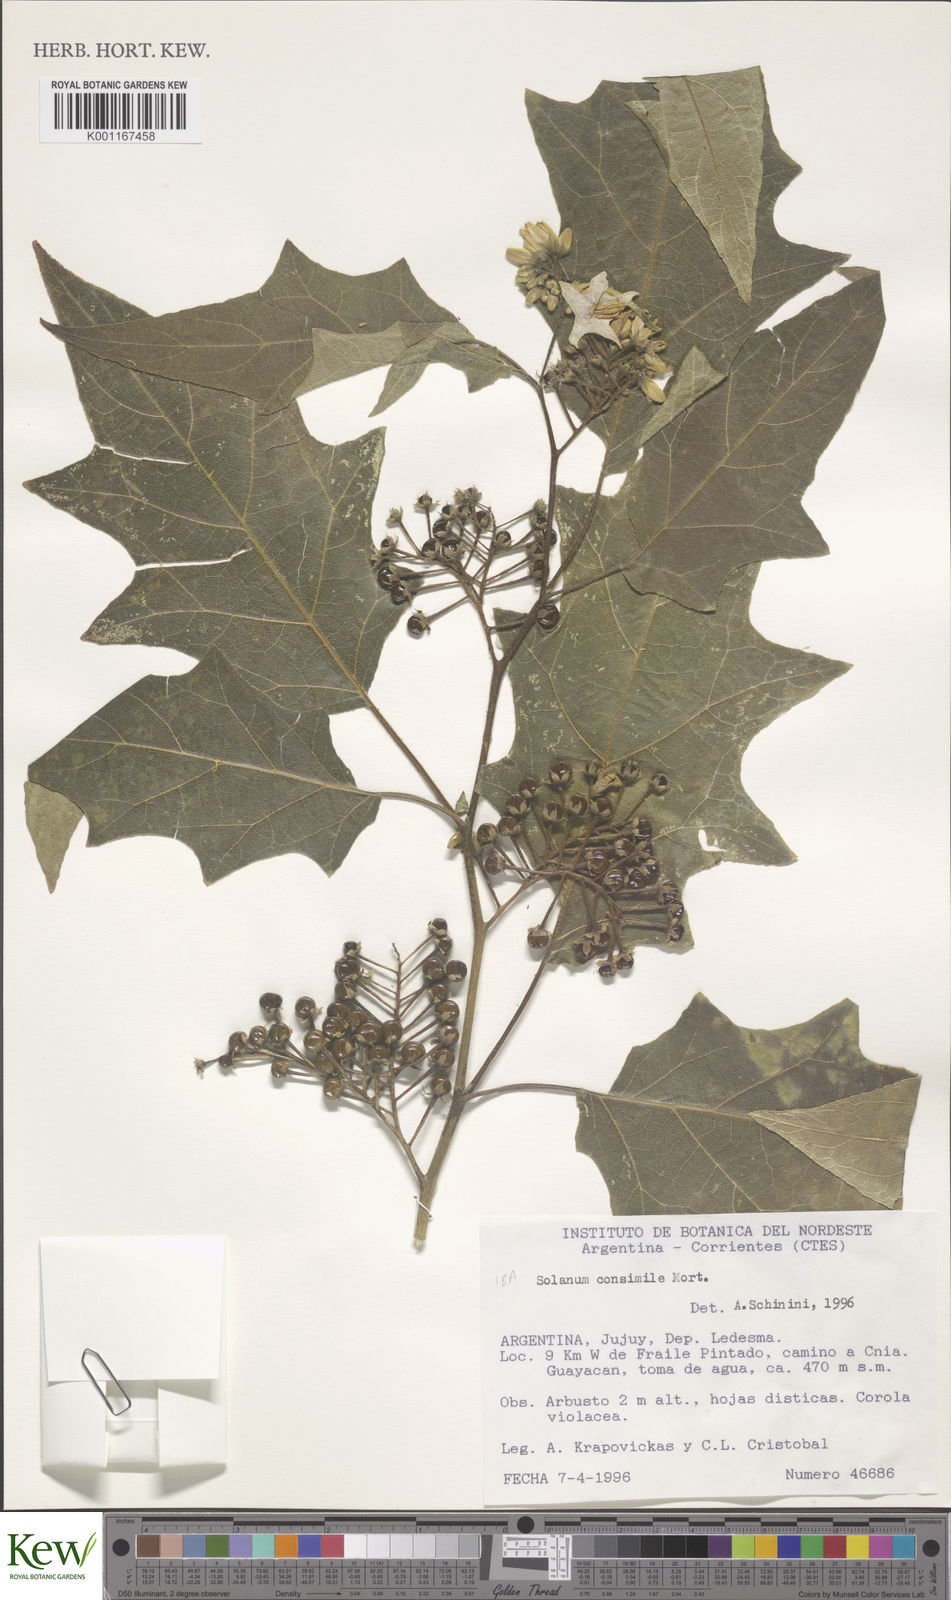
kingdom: Plantae
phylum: Tracheophyta
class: Magnoliopsida
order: Solanales
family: Solanaceae
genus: Solanum
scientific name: Solanum consimile
